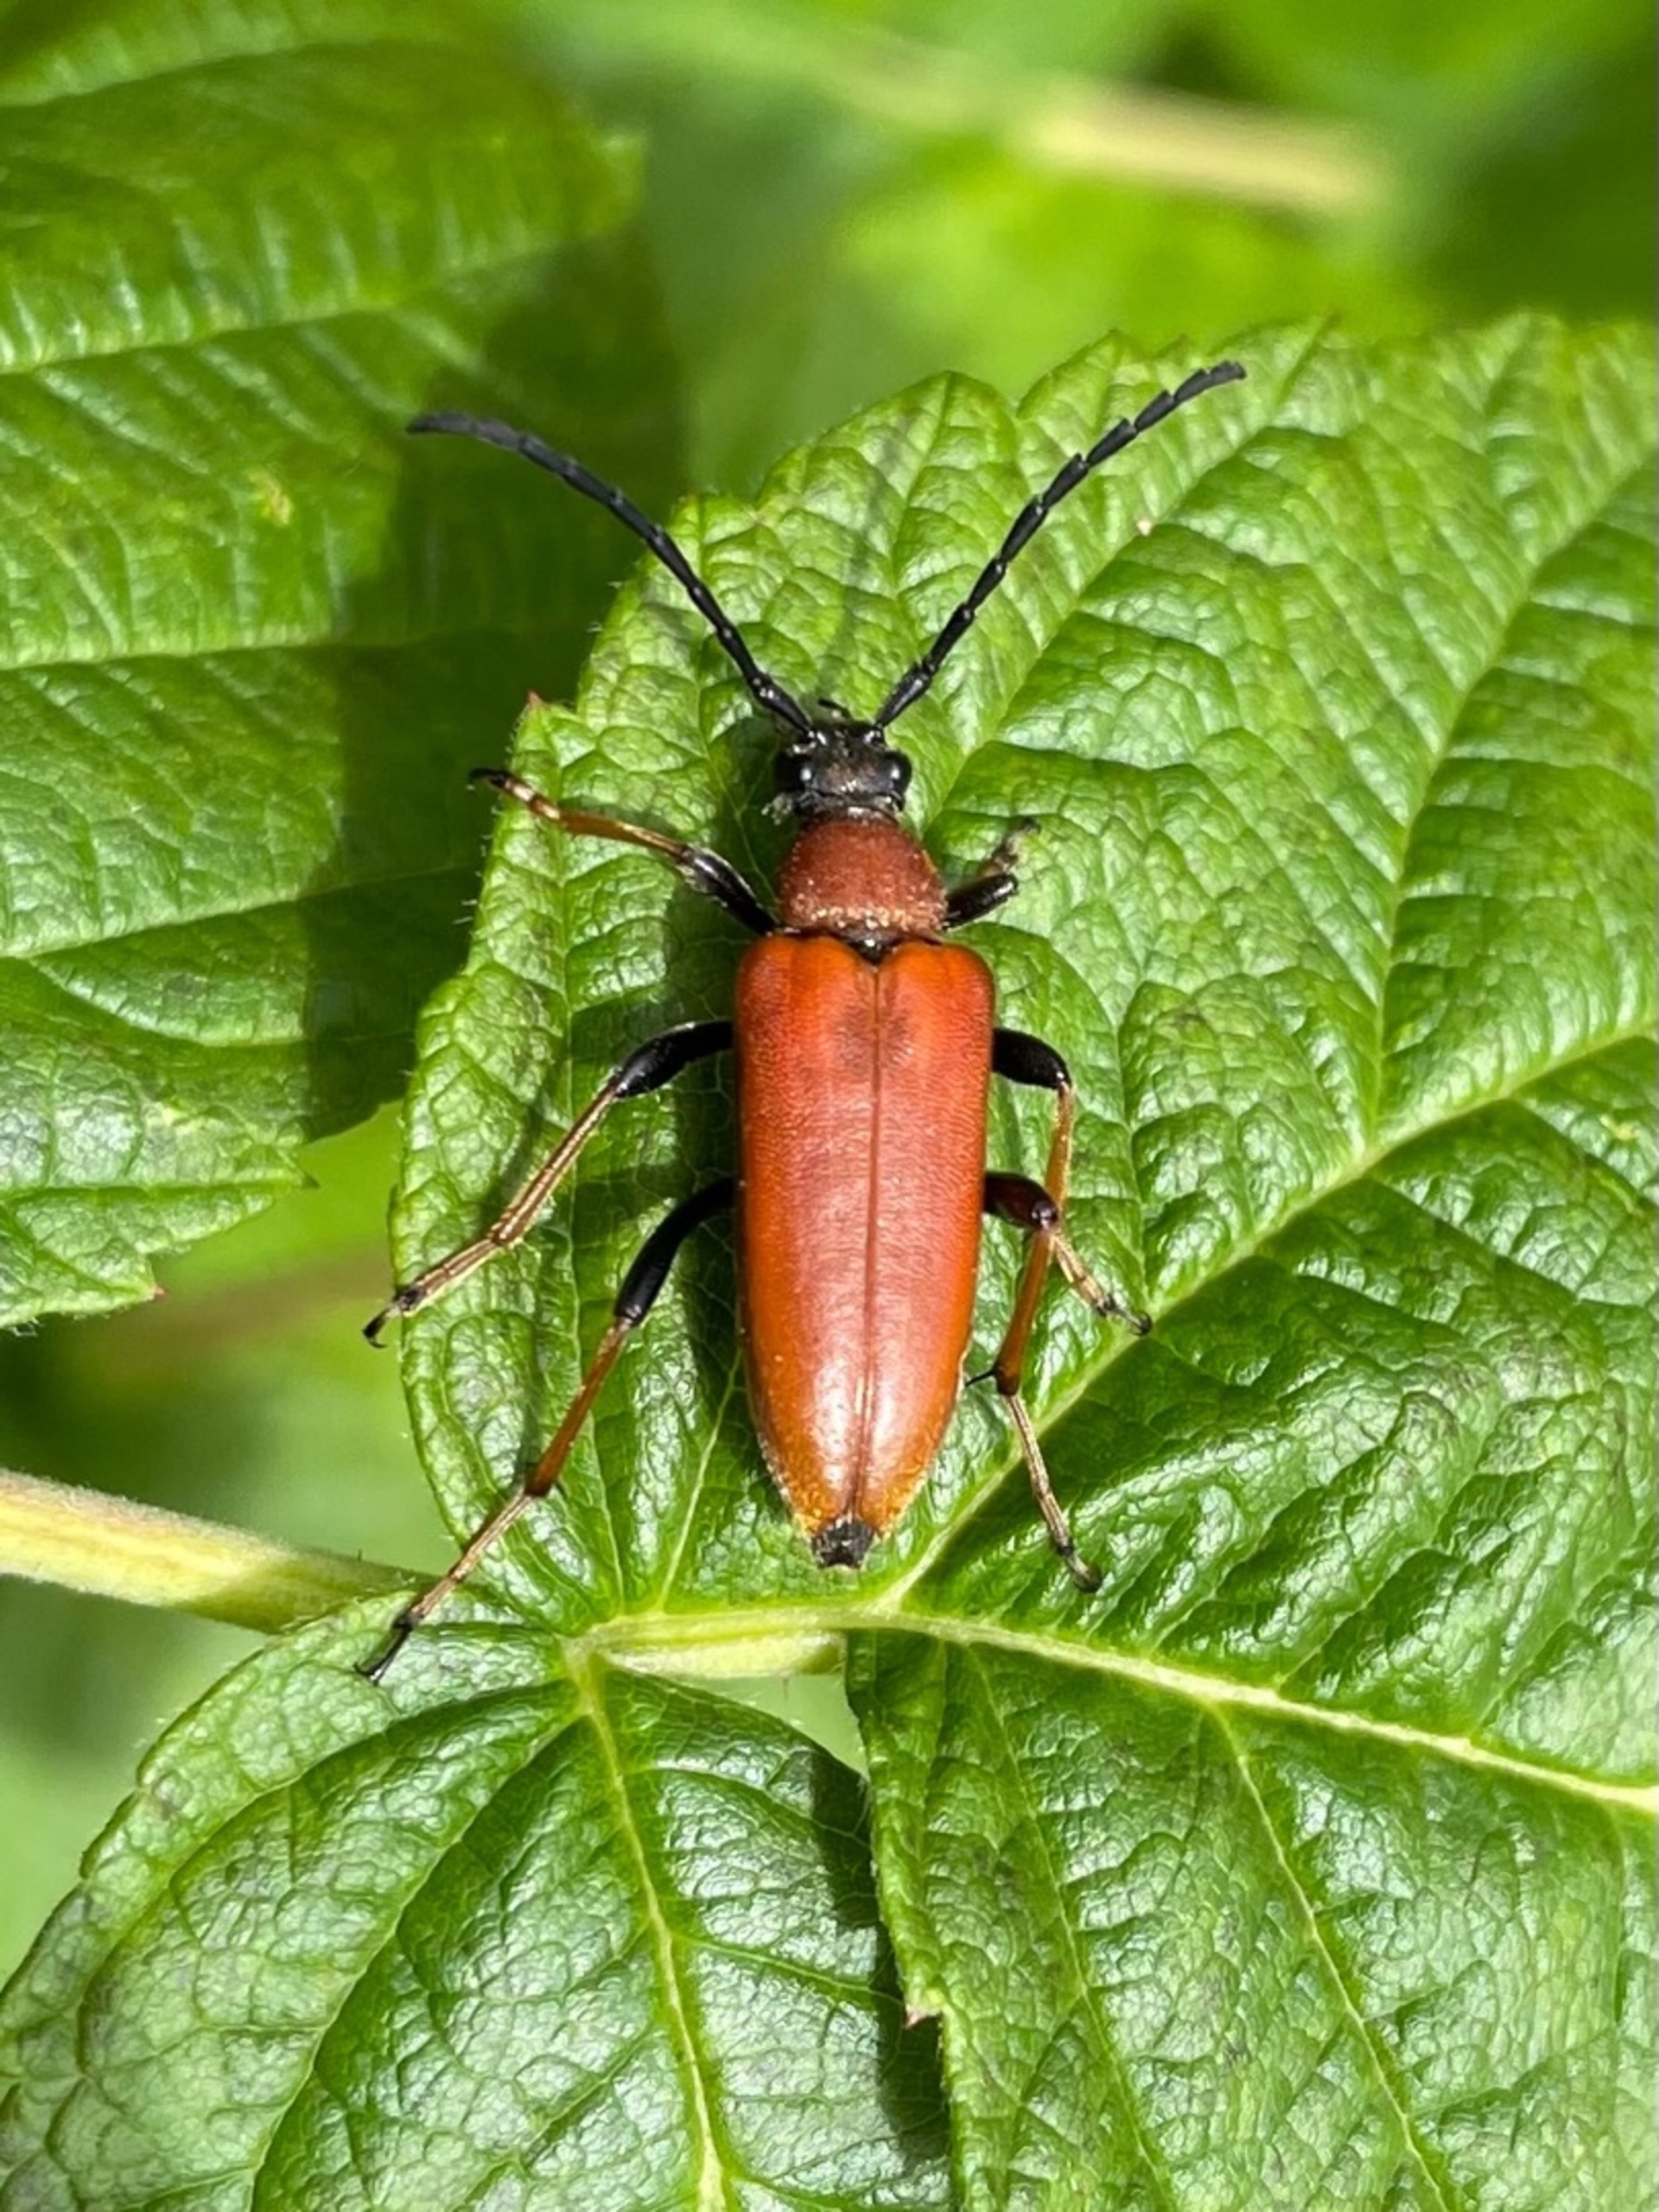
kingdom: Animalia
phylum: Arthropoda
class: Insecta
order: Coleoptera
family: Cerambycidae
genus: Stictoleptura
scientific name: Stictoleptura rubra
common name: Rød blomsterbuk
